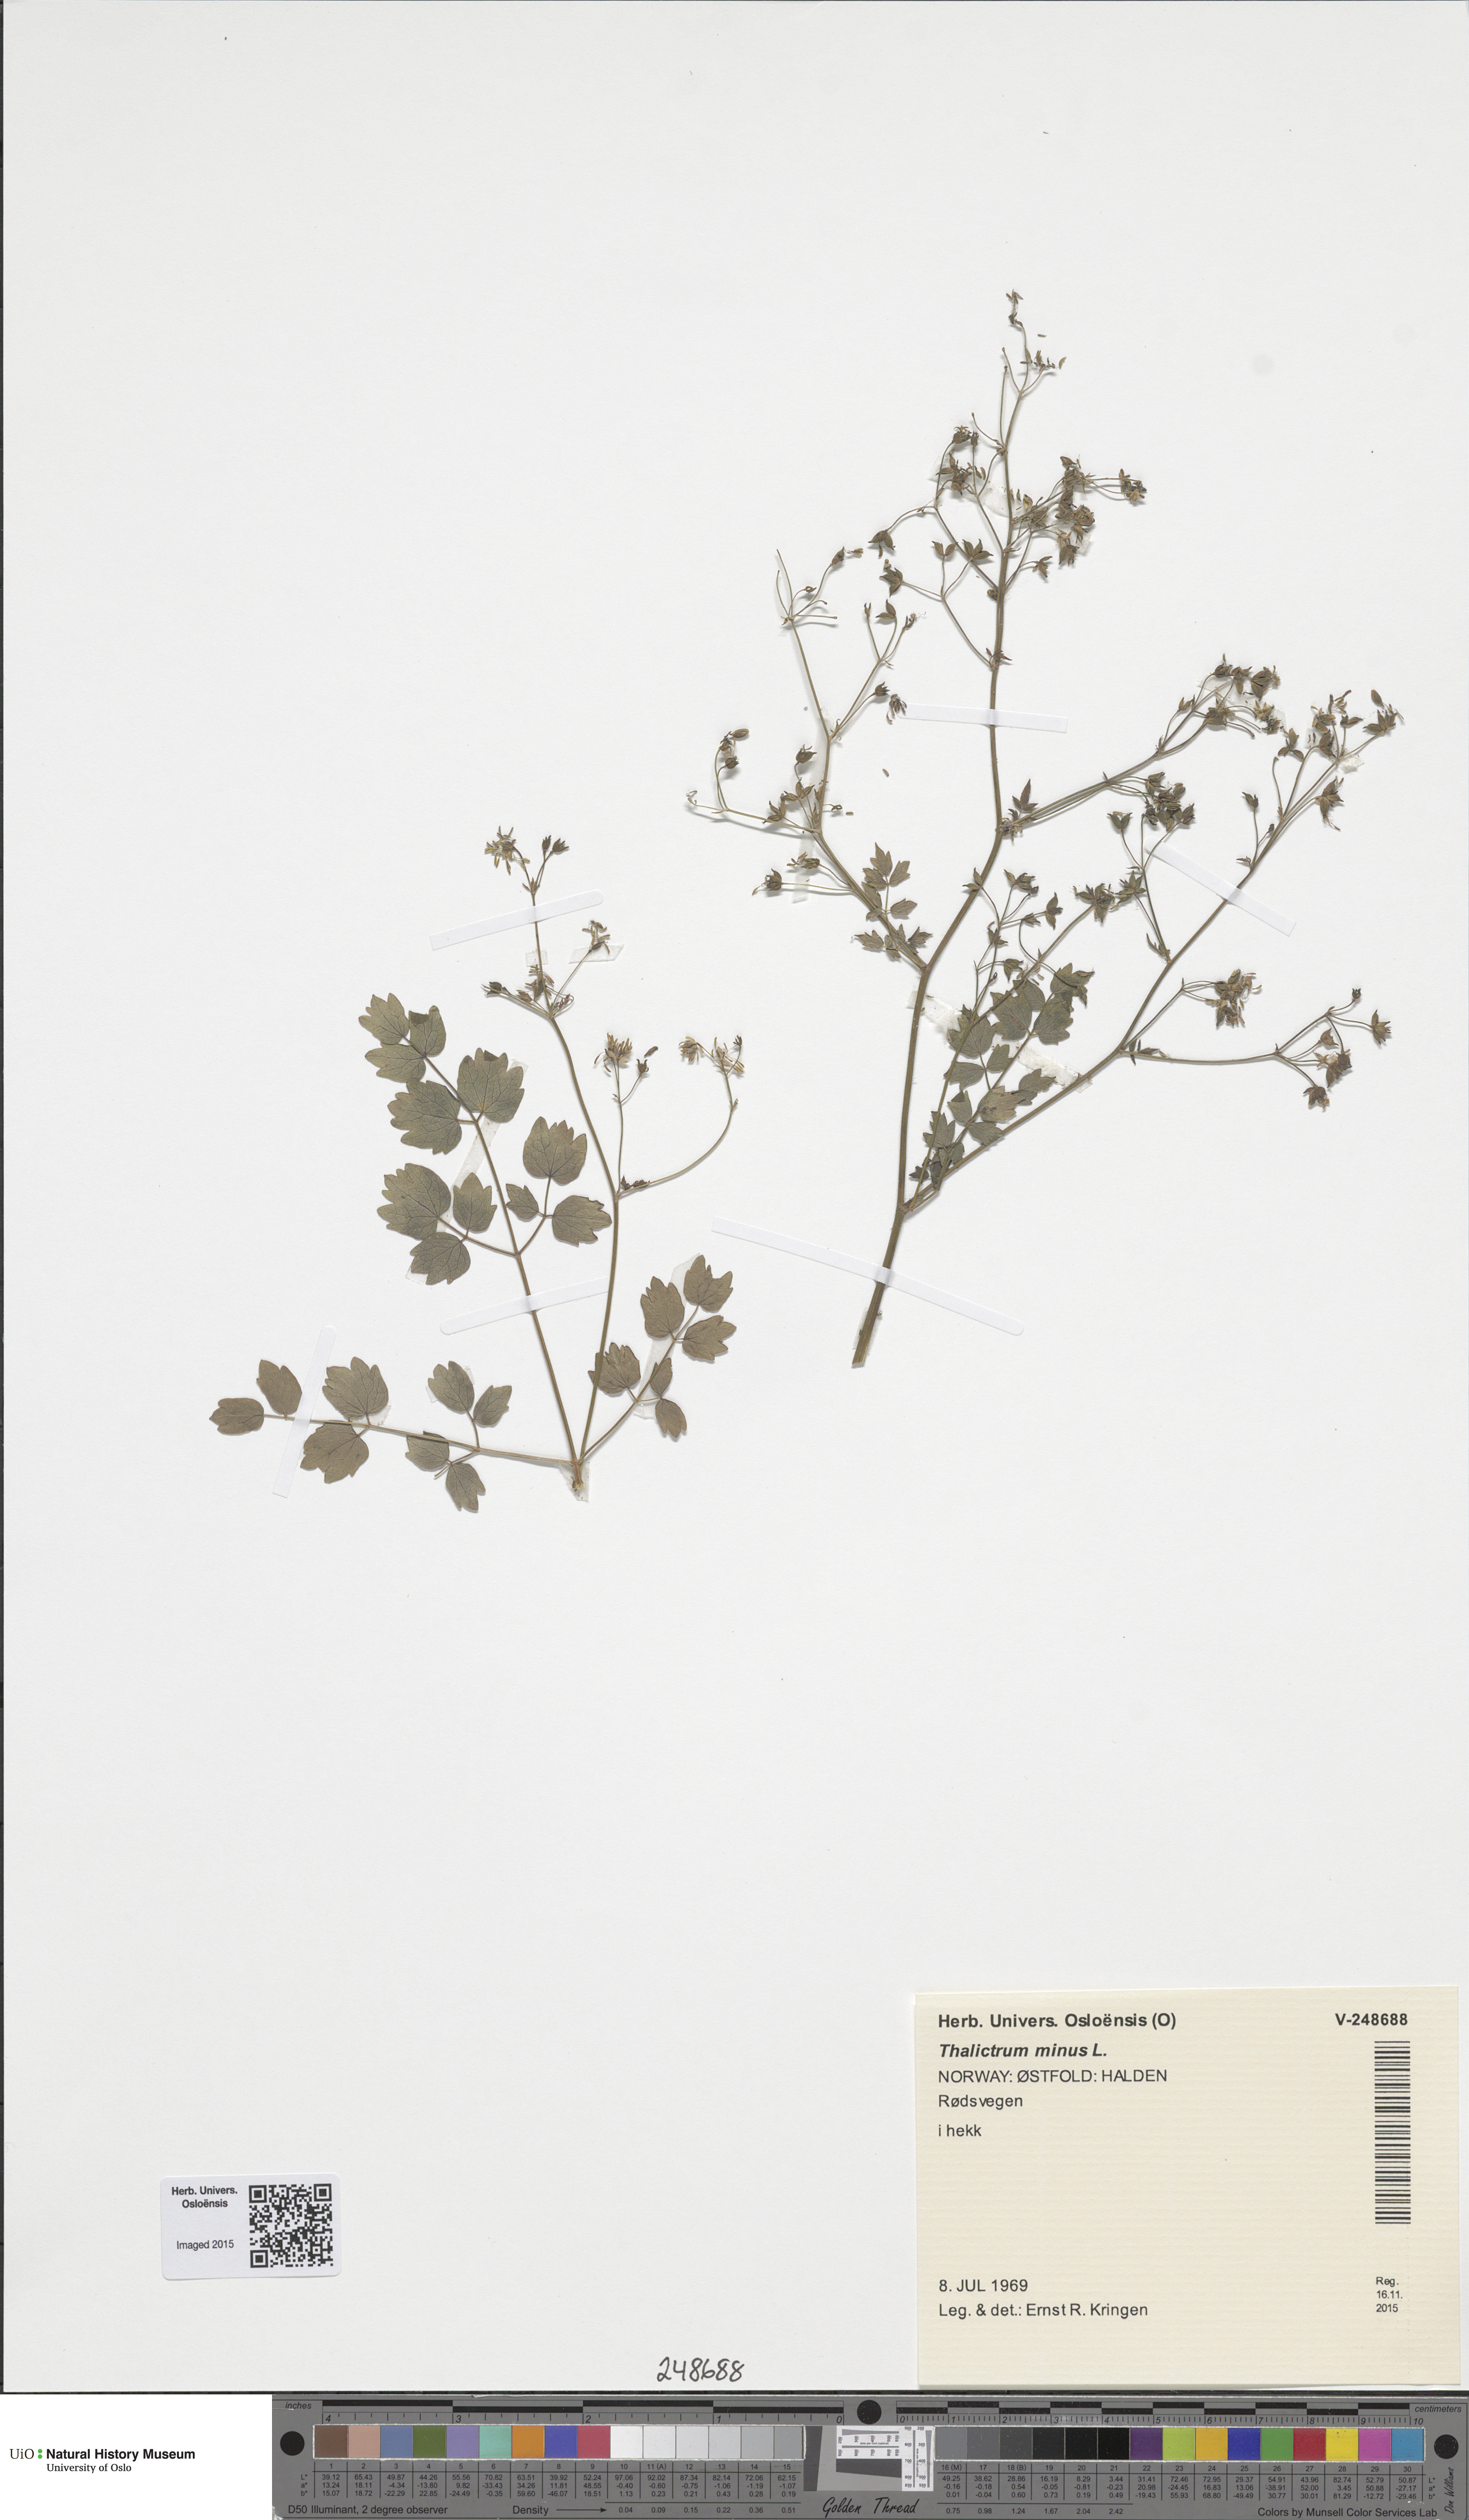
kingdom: Plantae
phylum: Tracheophyta
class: Magnoliopsida
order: Ranunculales
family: Ranunculaceae
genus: Thalictrum
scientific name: Thalictrum minus
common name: Lesser meadow-rue
